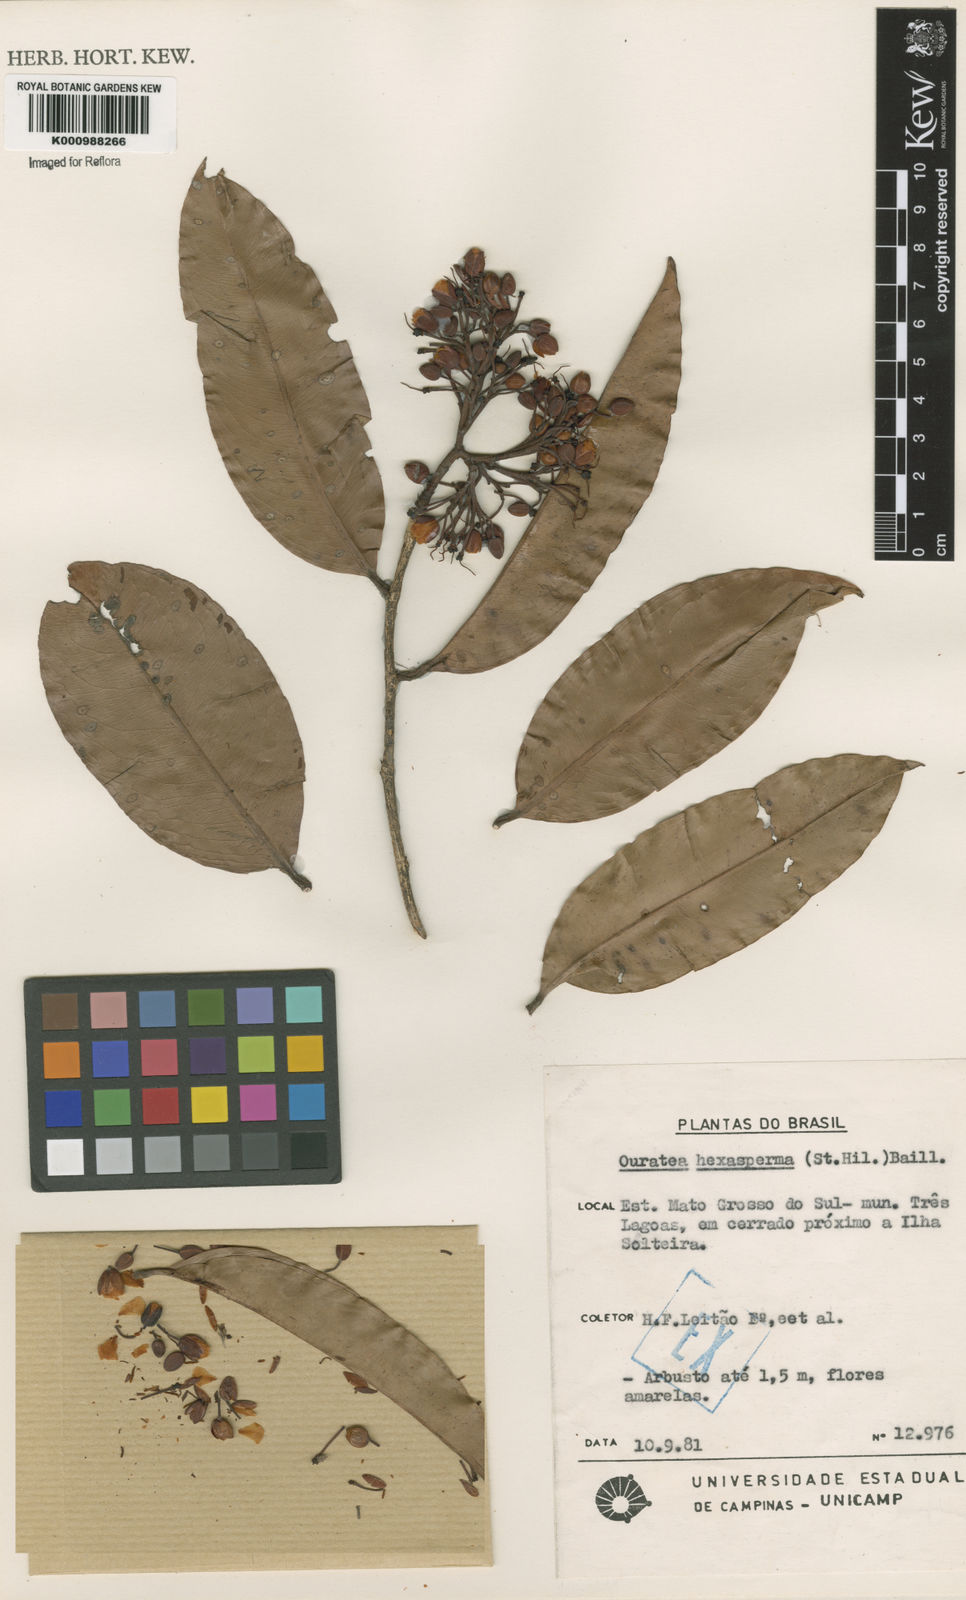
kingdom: Plantae
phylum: Tracheophyta
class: Magnoliopsida
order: Malpighiales
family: Ochnaceae
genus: Ouratea
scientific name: Ouratea hexasperma
